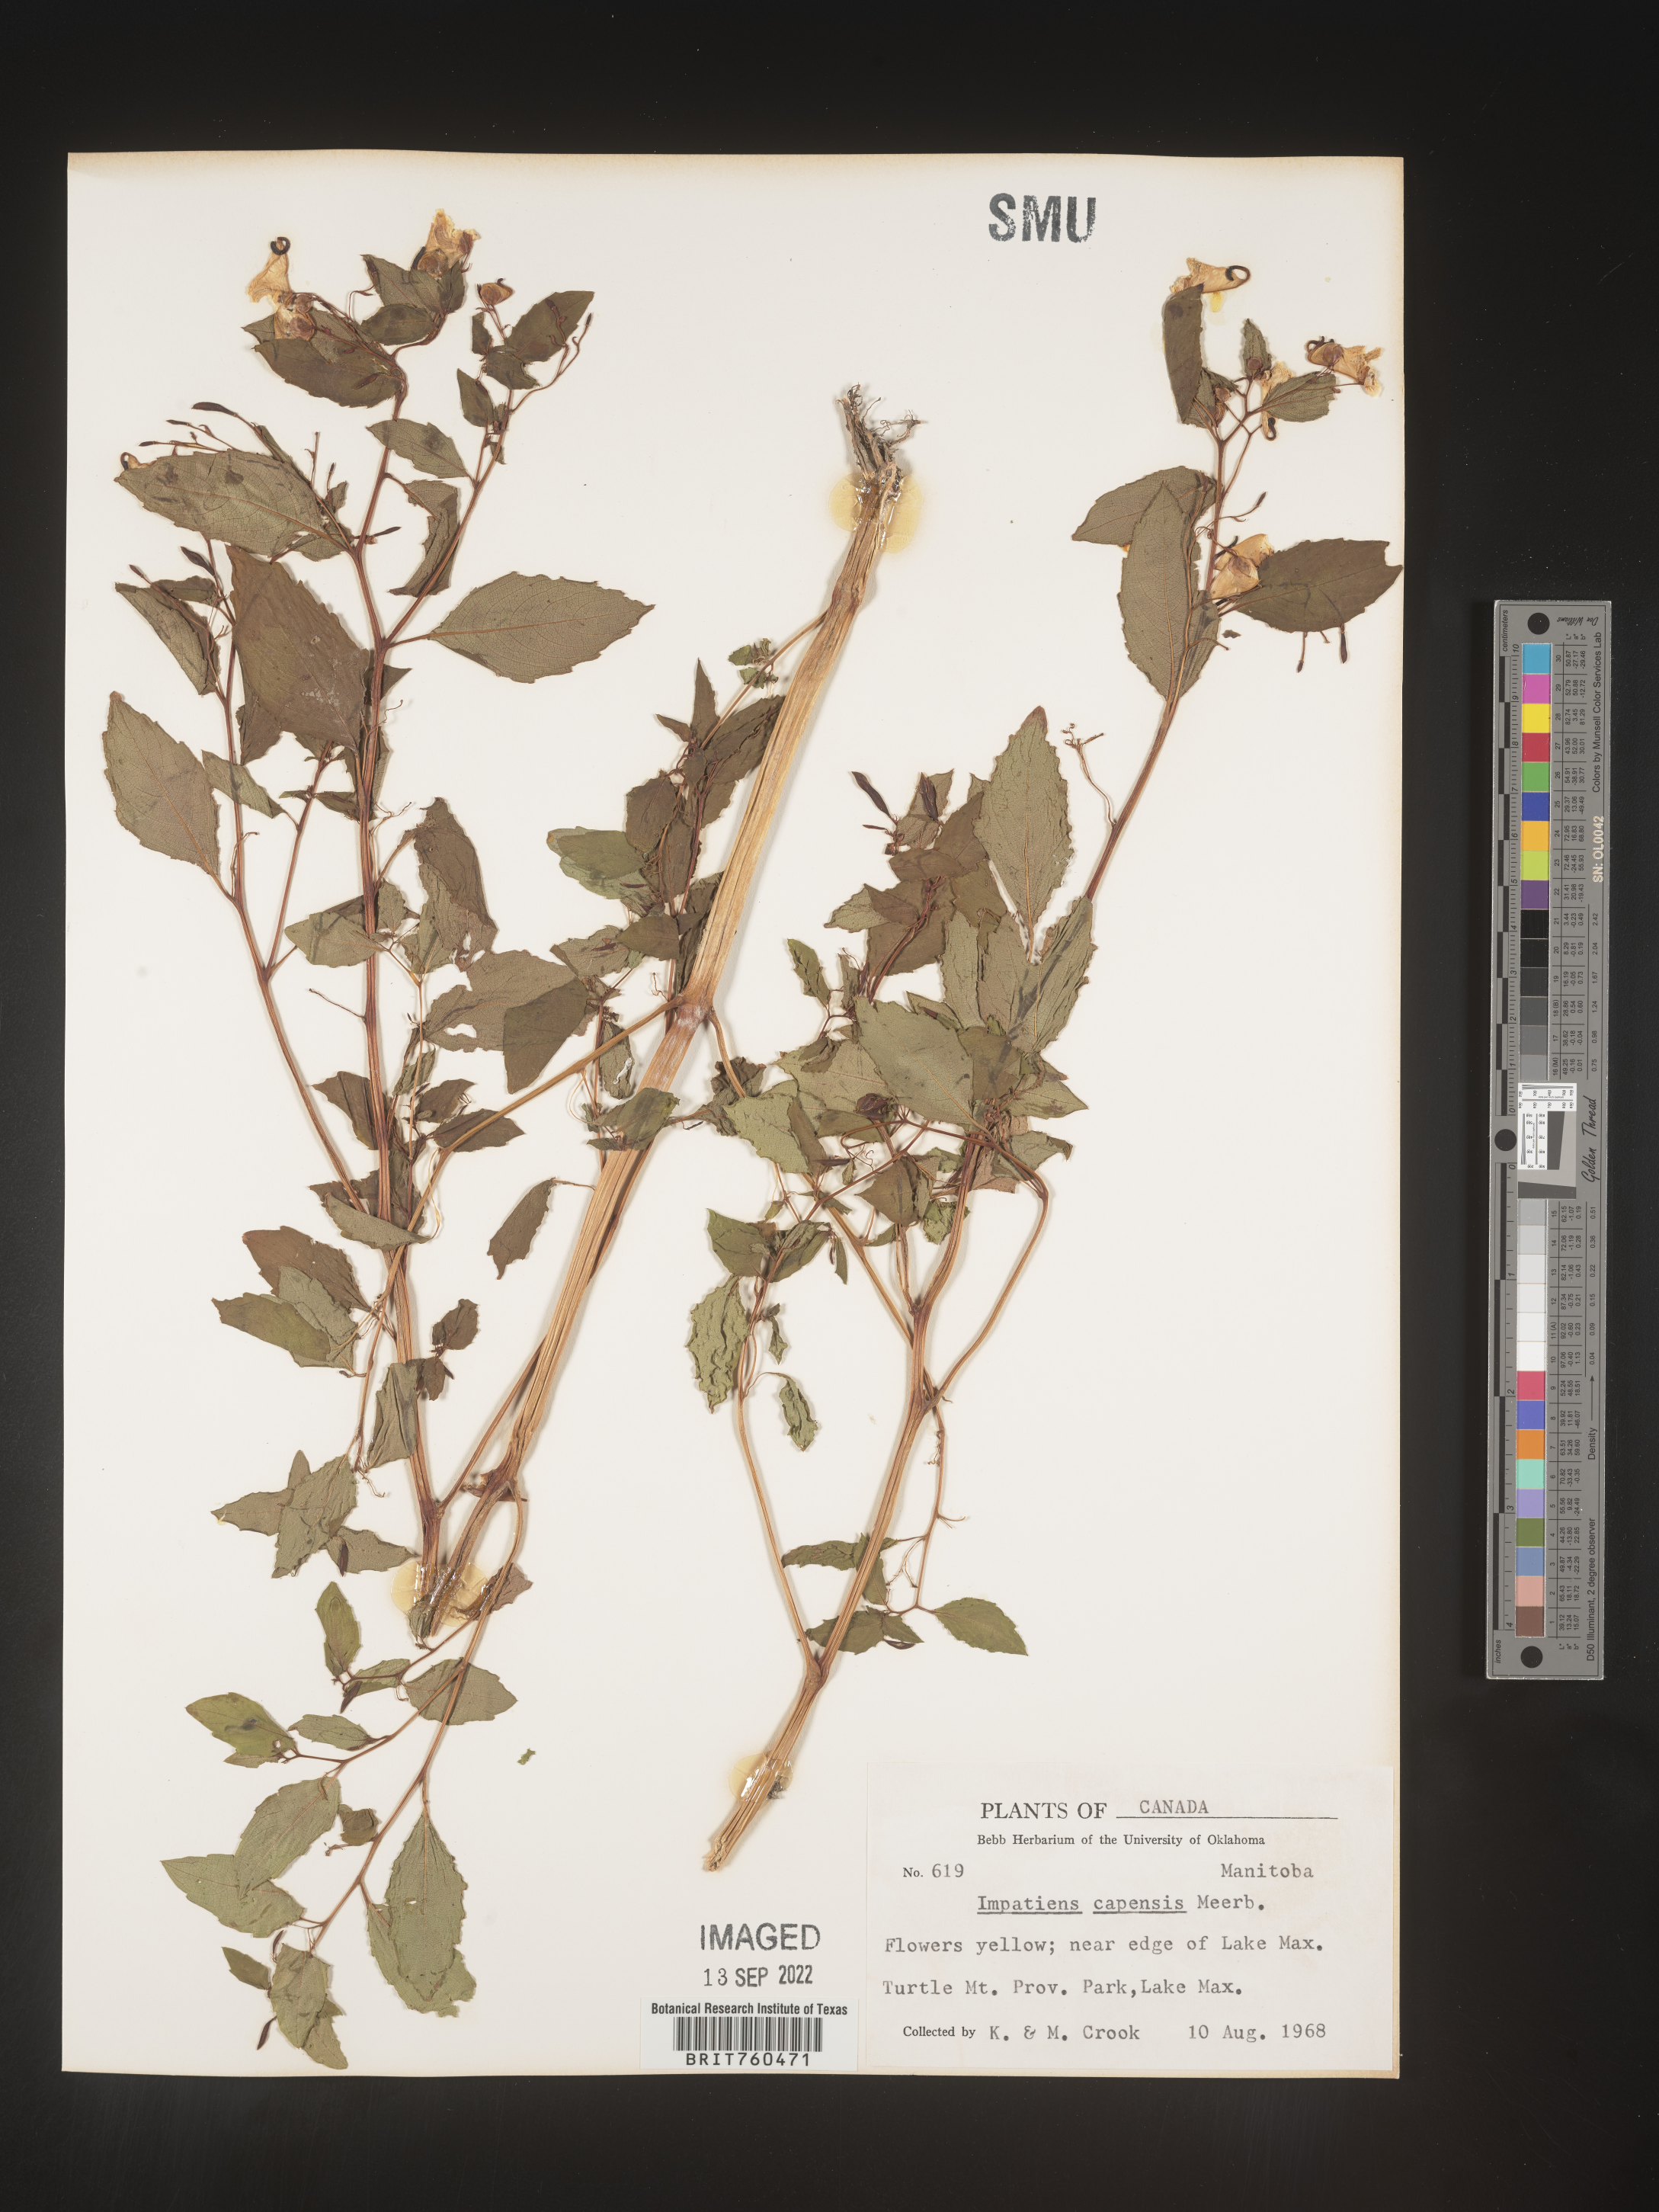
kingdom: Plantae
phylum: Tracheophyta
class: Magnoliopsida
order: Ericales
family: Balsaminaceae
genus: Impatiens
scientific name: Impatiens capensis
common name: Orange balsam
